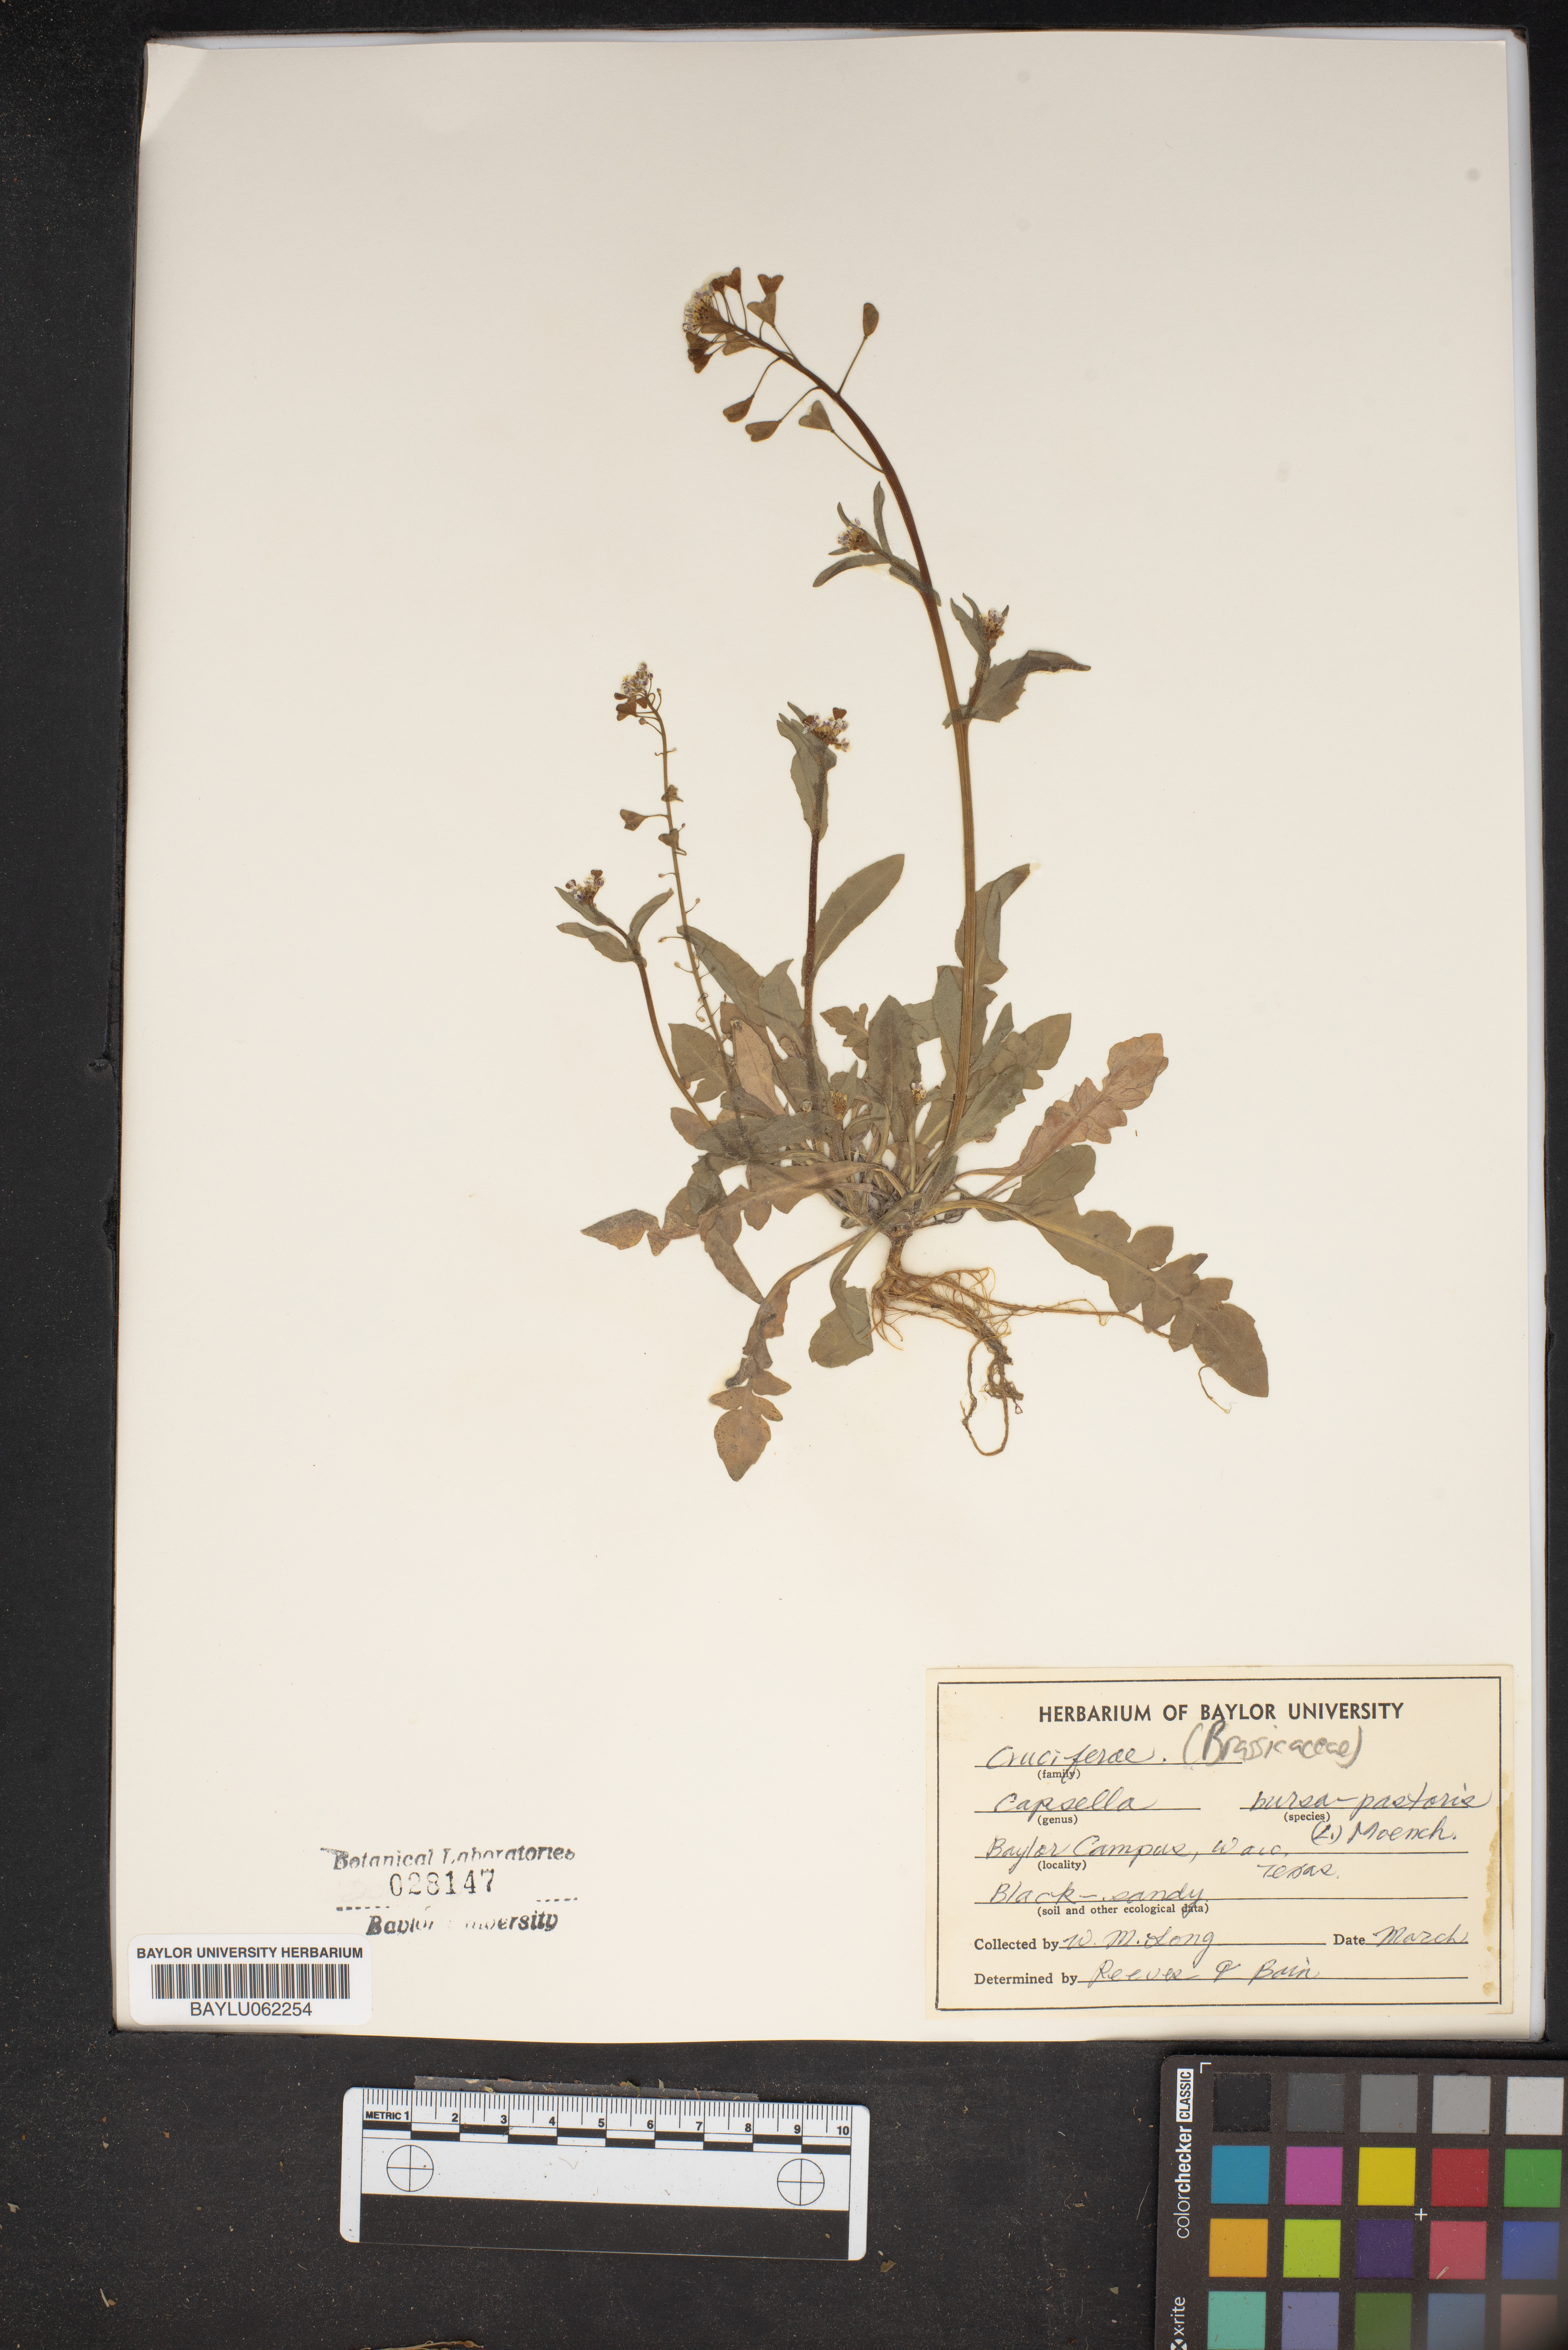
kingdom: Plantae
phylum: Tracheophyta
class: Magnoliopsida
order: Brassicales
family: Brassicaceae
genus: Capsella
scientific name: Capsella bursa-pastoris
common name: Shepherd's purse
